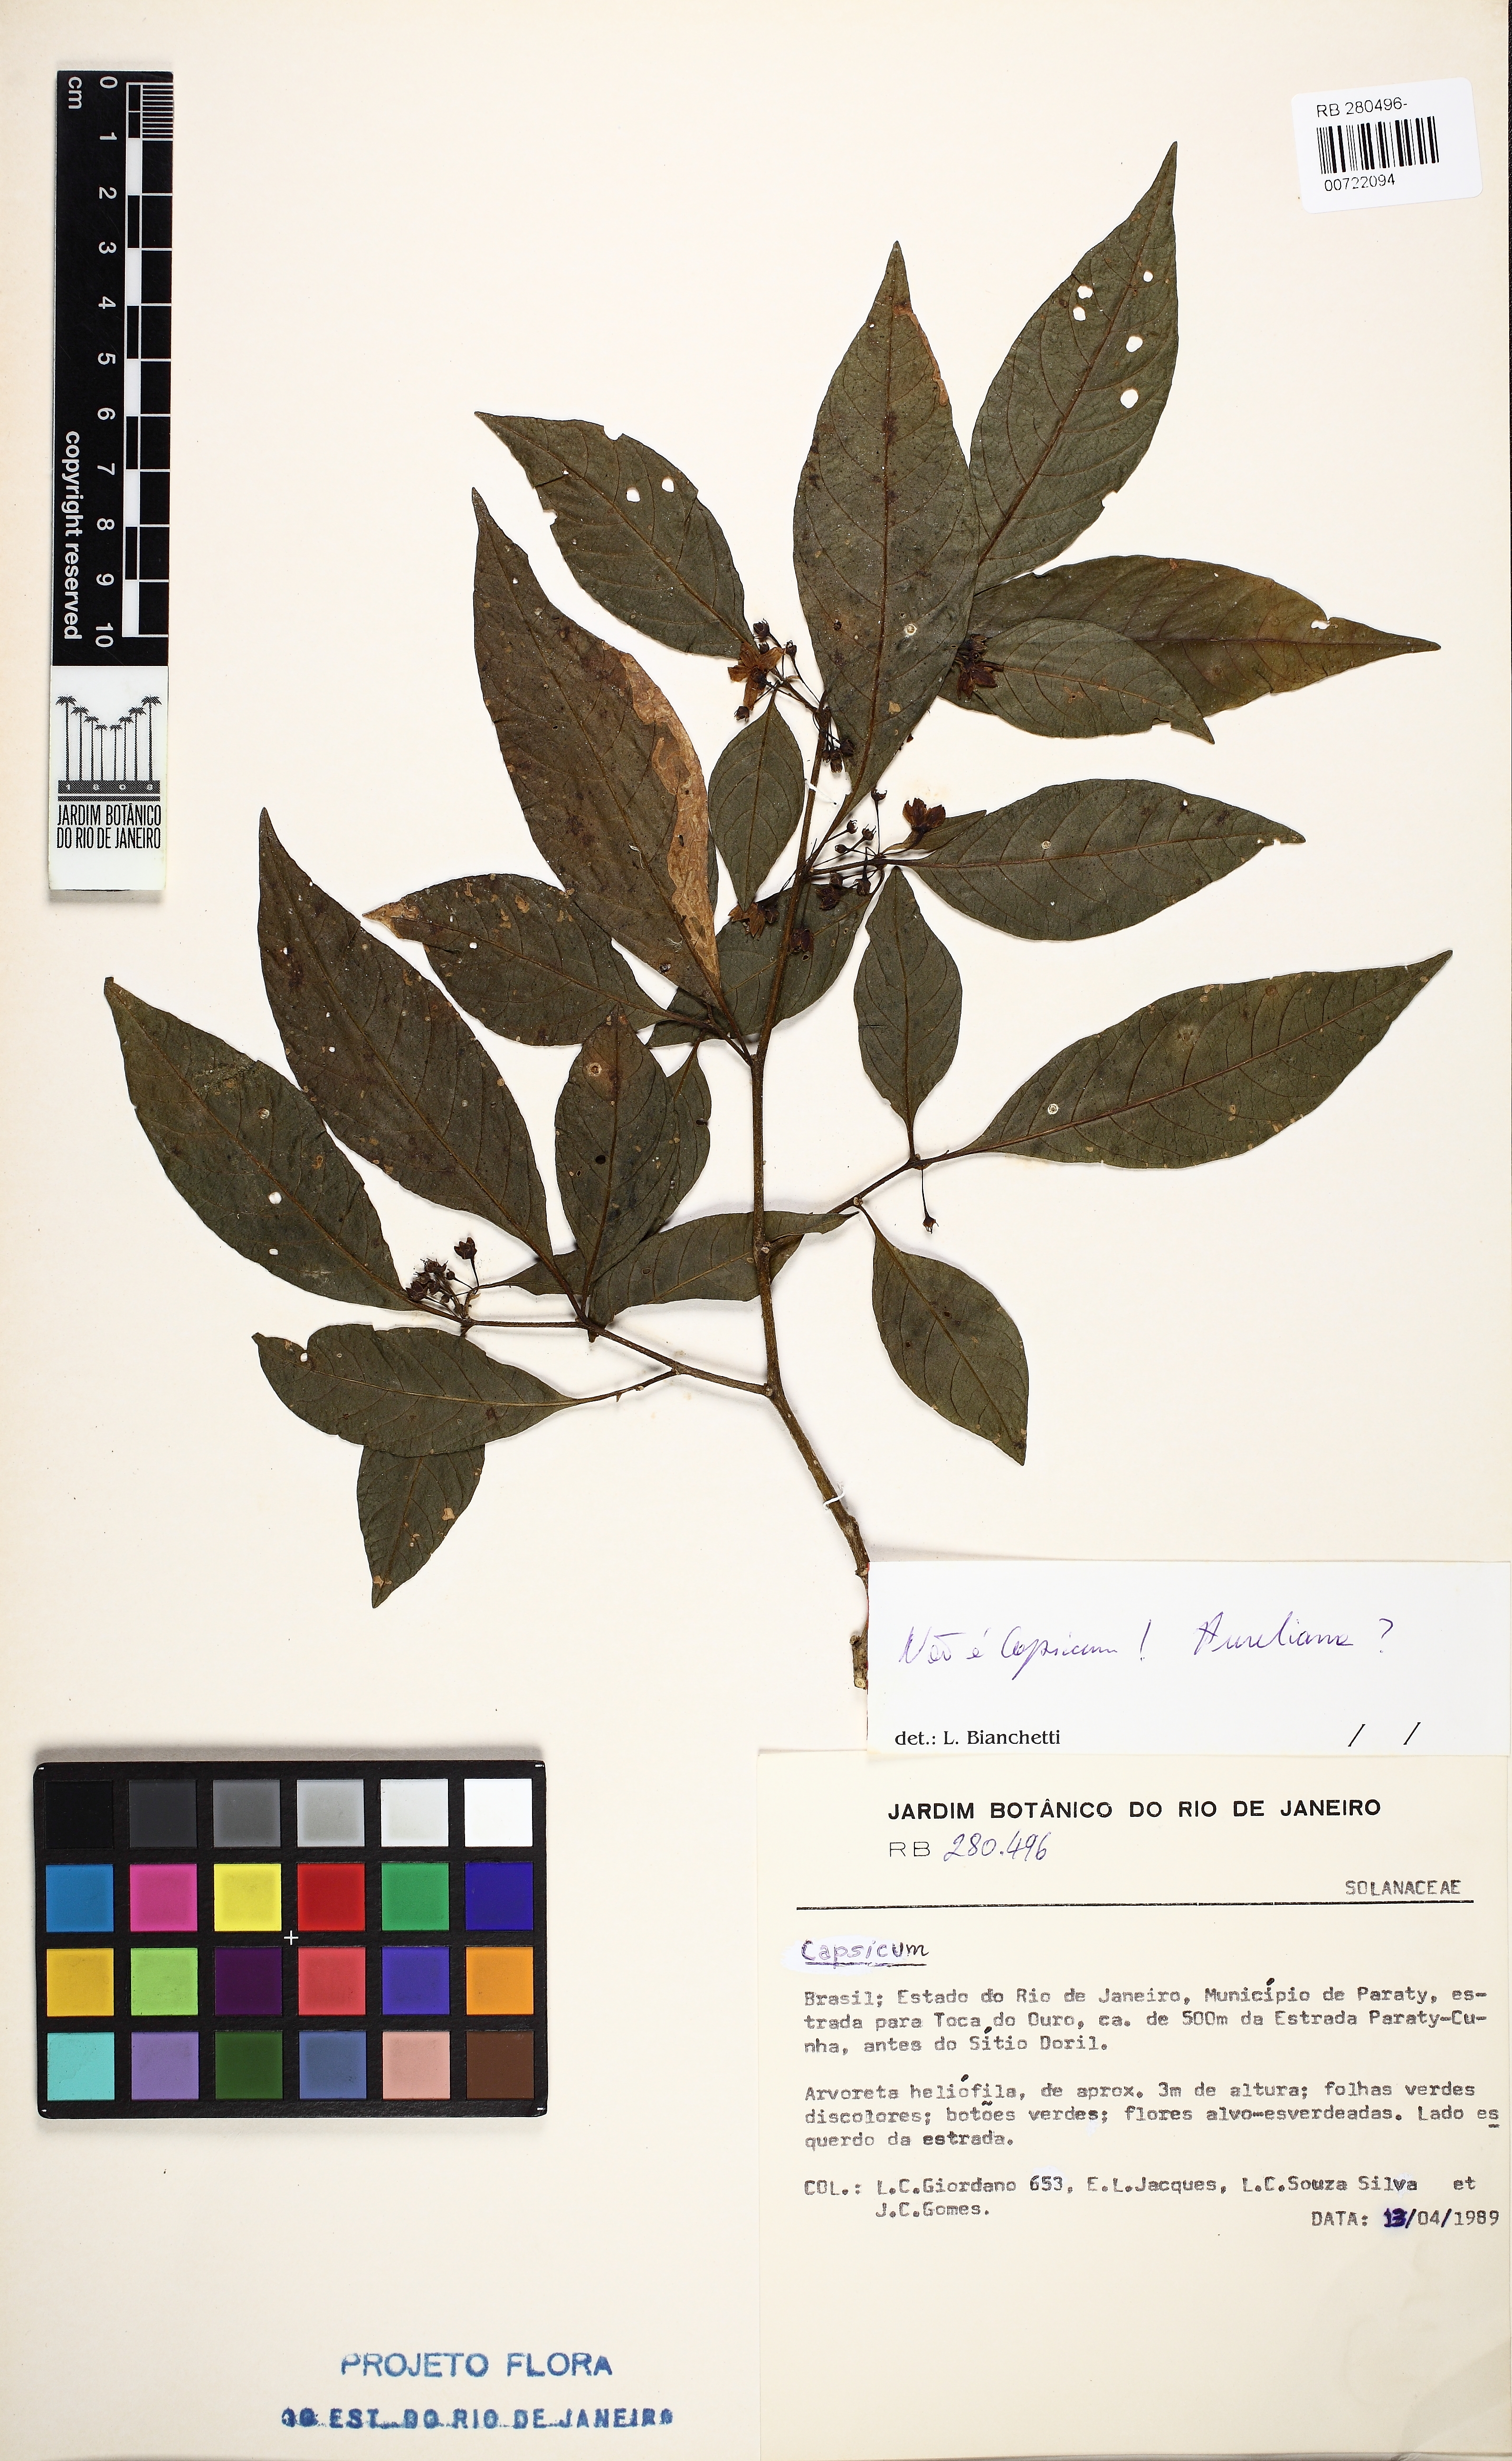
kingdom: Plantae
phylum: Tracheophyta
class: Magnoliopsida
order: Apiales
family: Araliaceae
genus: Aureliana
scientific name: Aureliana
